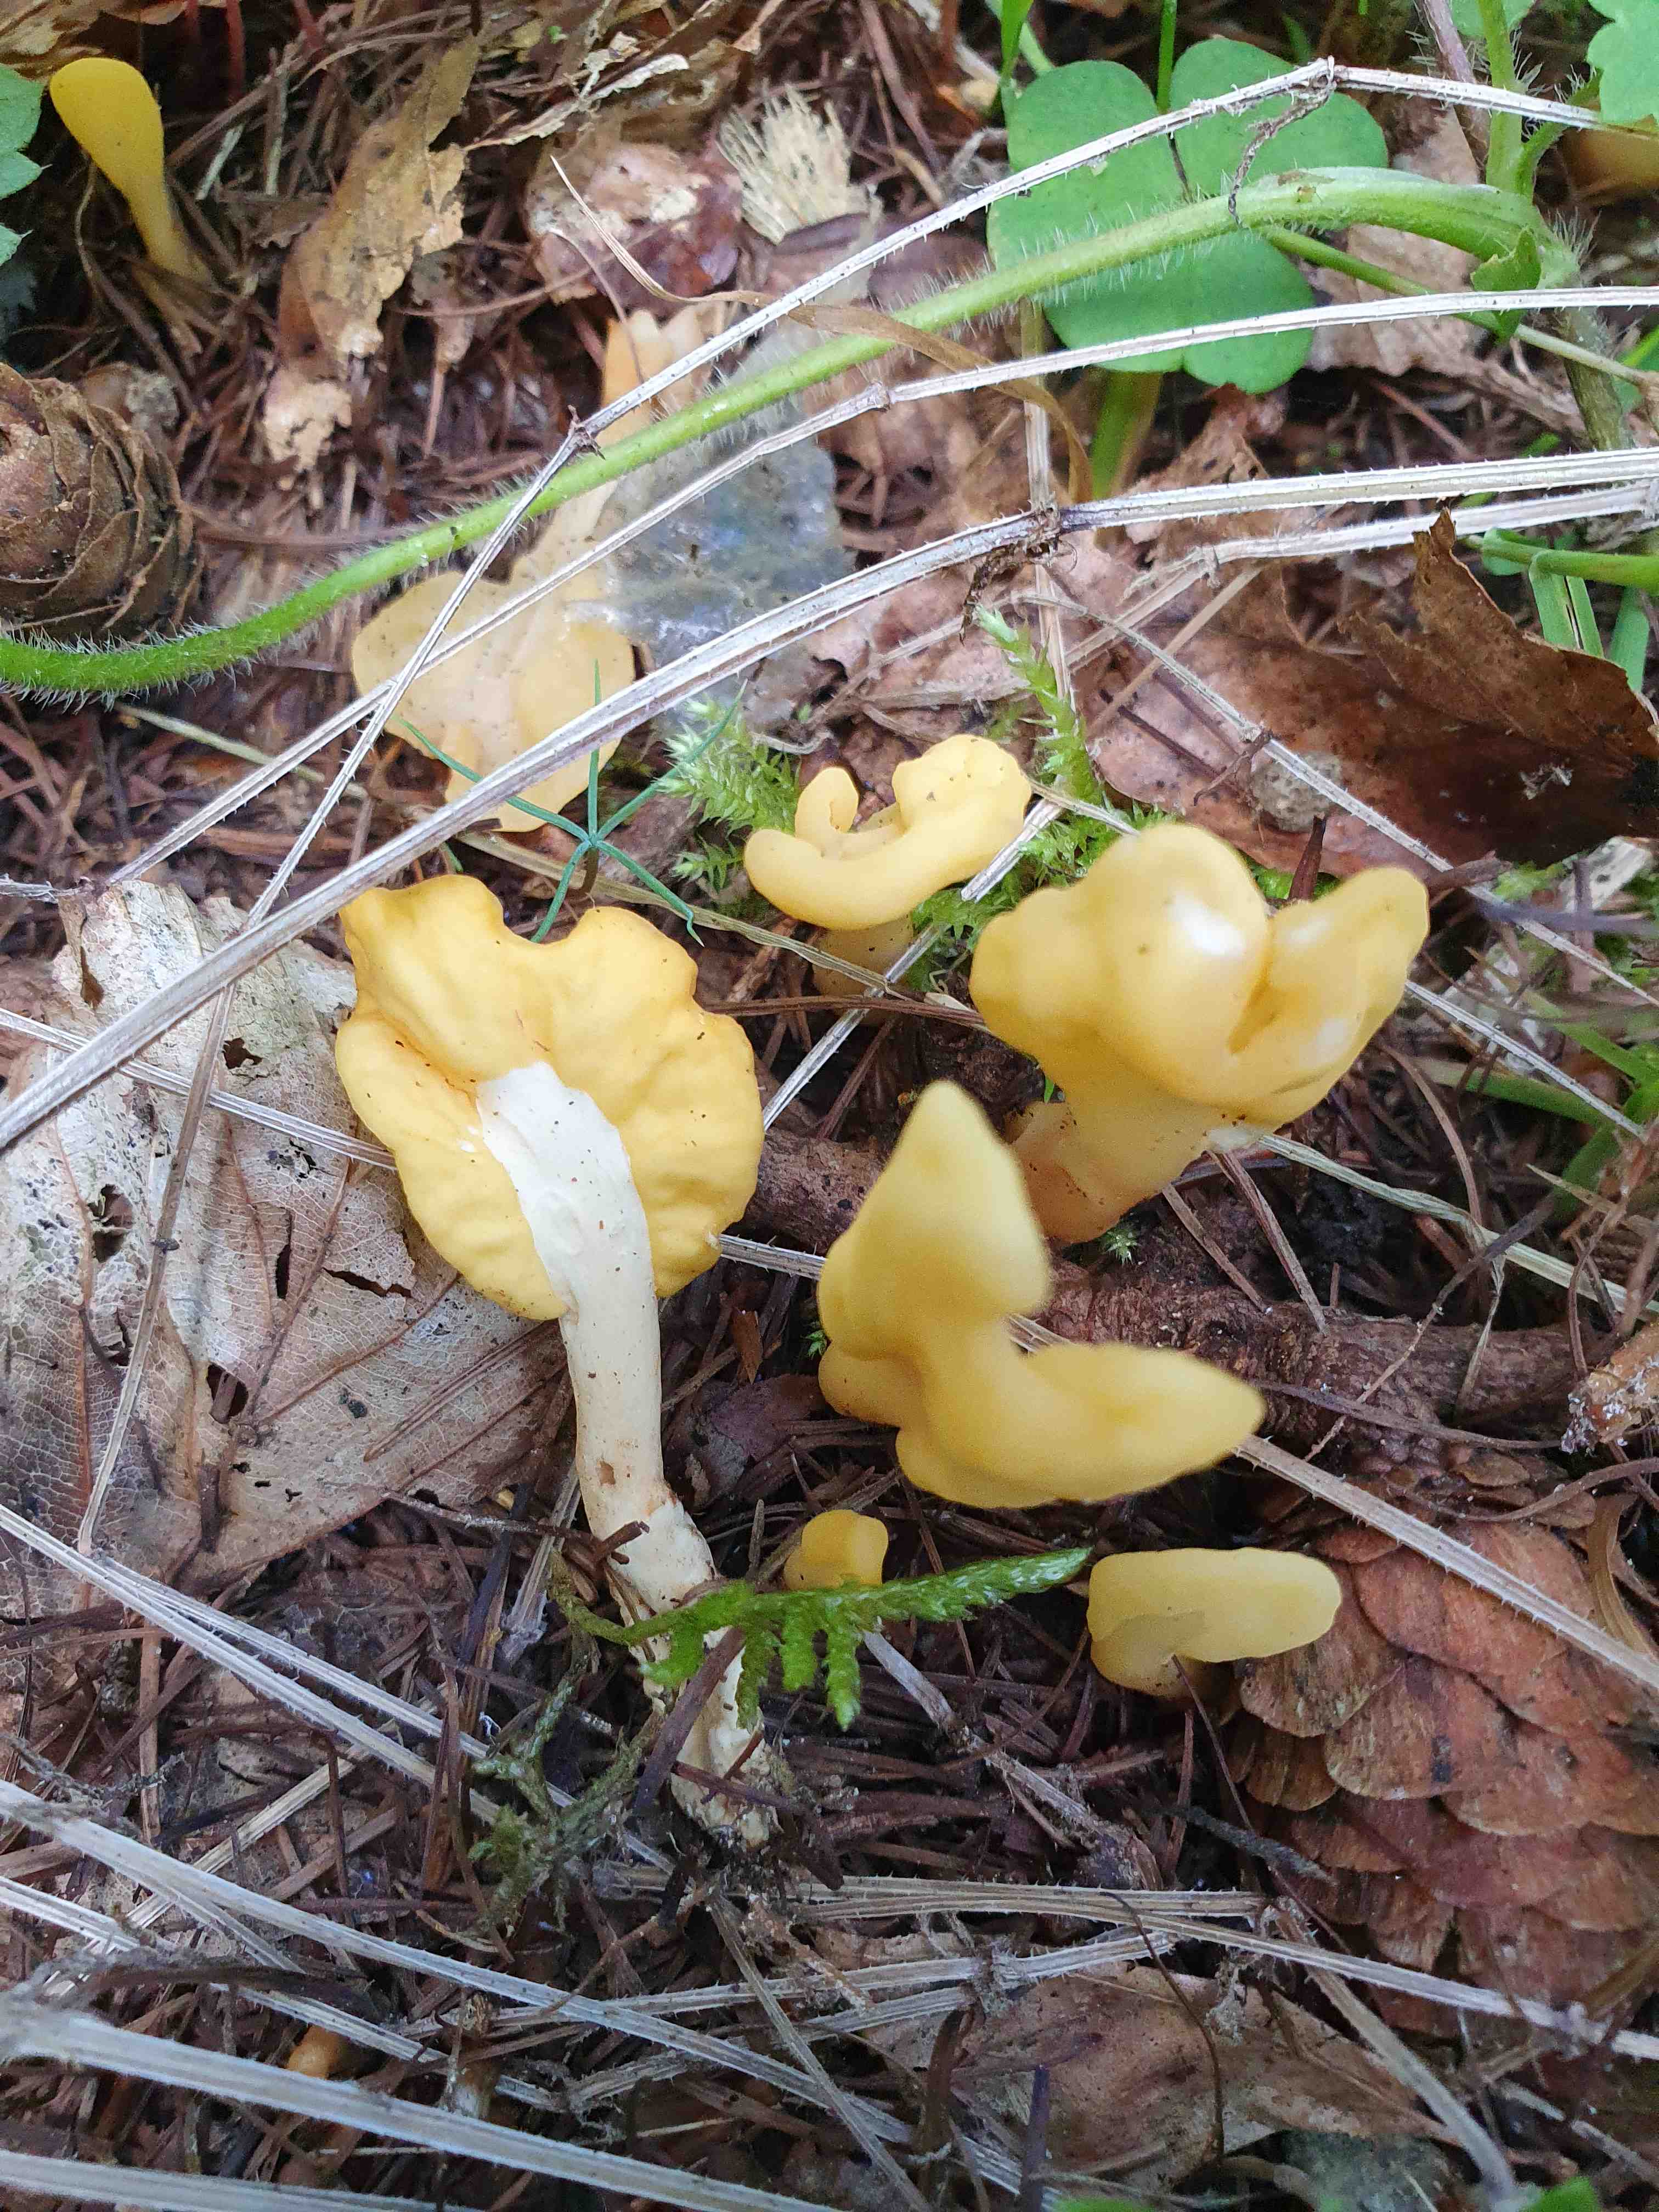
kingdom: Fungi
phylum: Ascomycota
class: Leotiomycetes
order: Rhytismatales
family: Cudoniaceae
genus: Spathularia
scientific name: Spathularia flavida
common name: gul spatelsvamp
